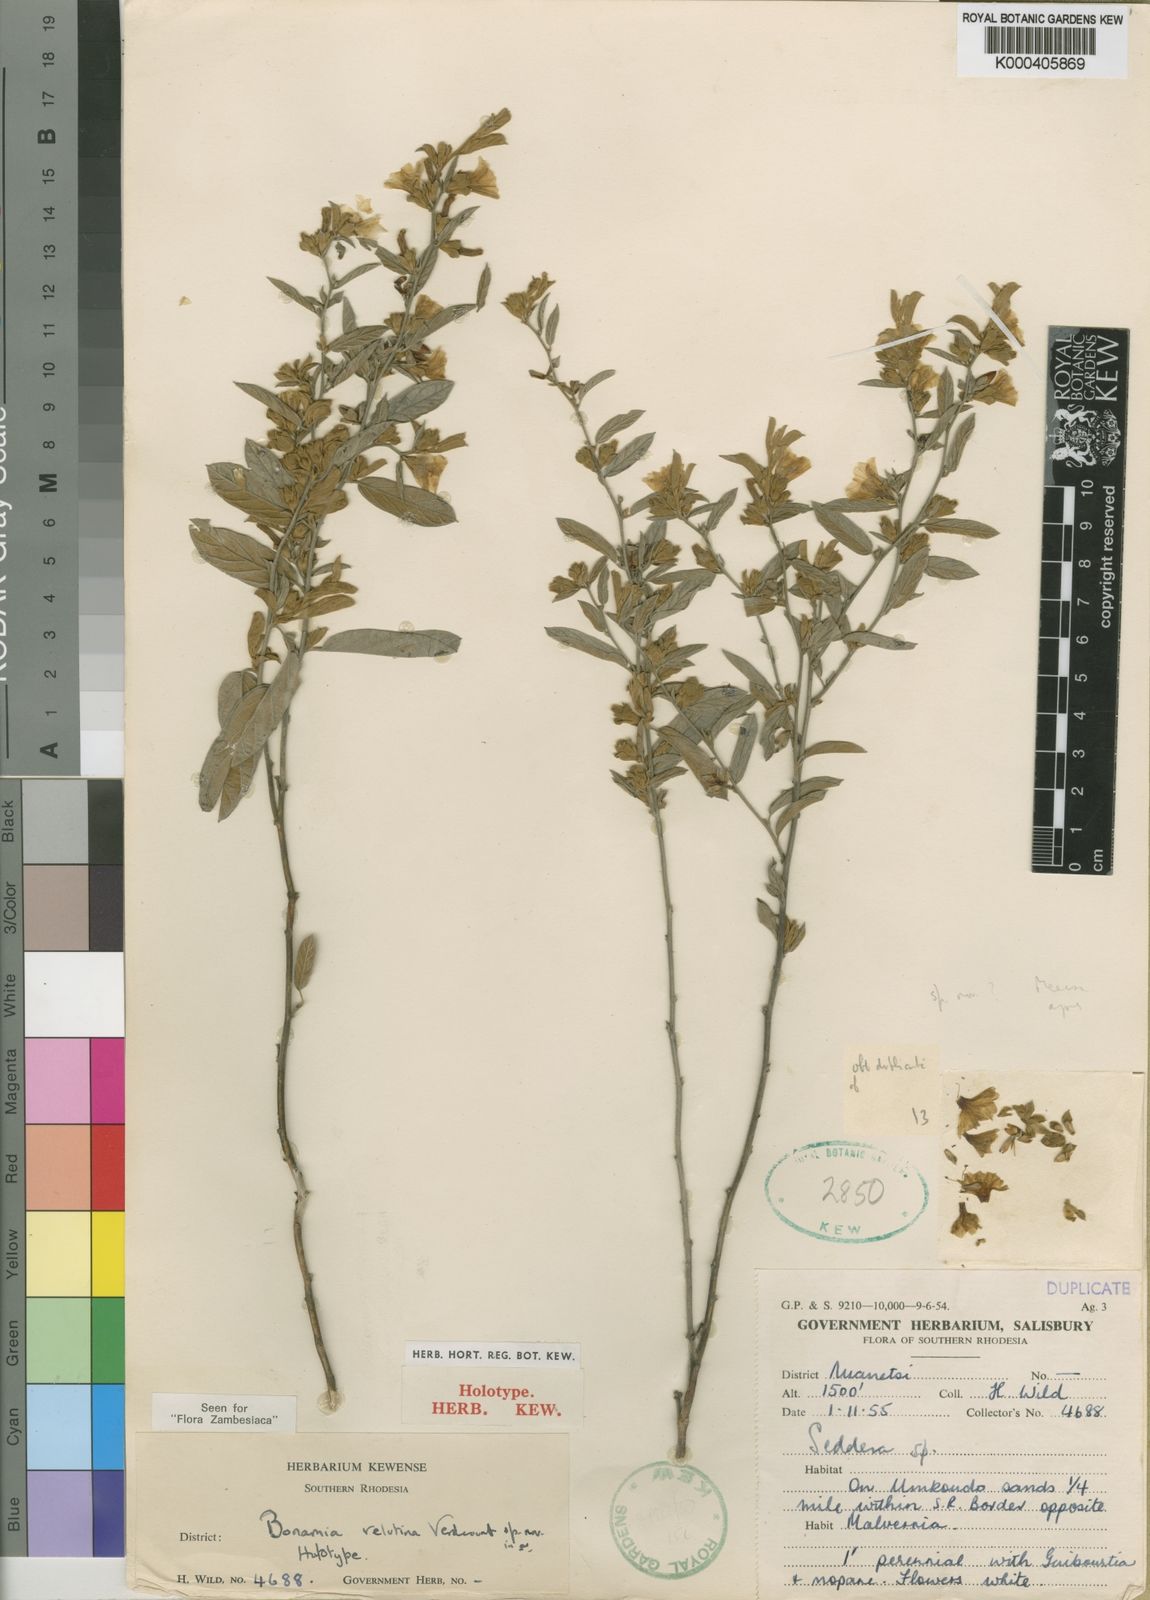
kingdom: Plantae
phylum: Tracheophyta
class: Magnoliopsida
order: Solanales
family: Convolvulaceae
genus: Bonamia
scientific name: Bonamia velutina
